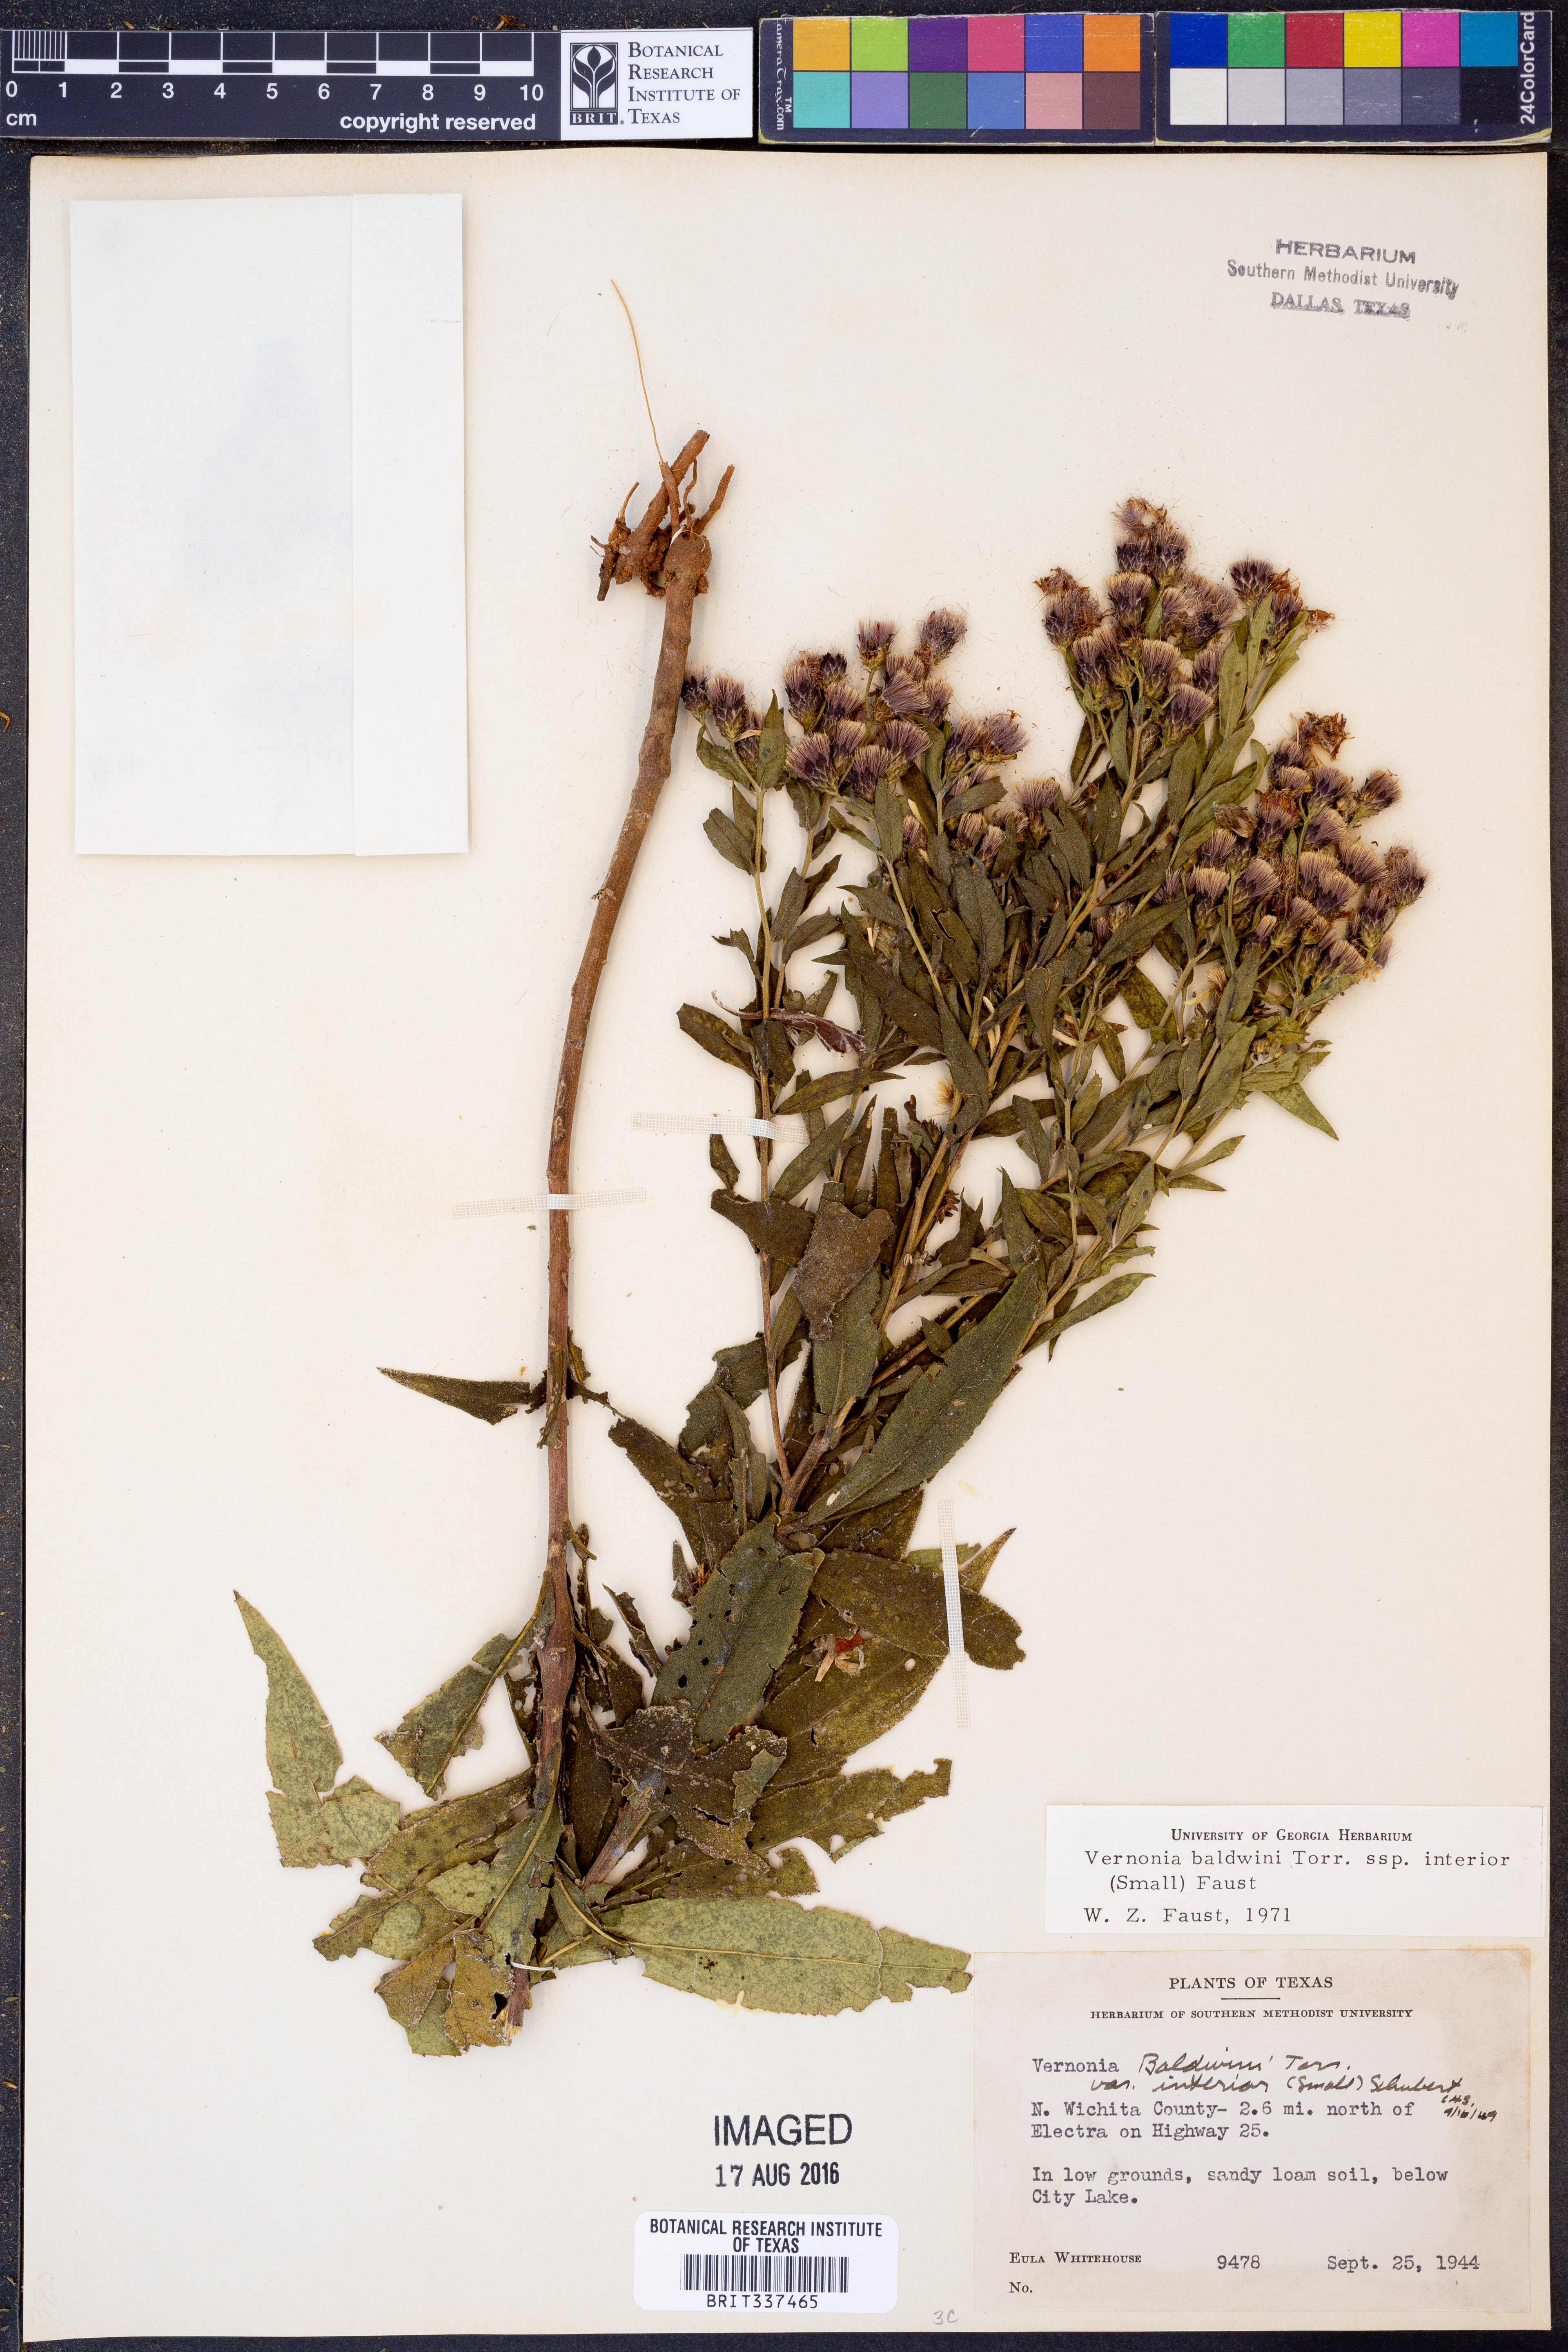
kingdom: Plantae
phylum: Tracheophyta
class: Magnoliopsida
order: Asterales
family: Asteraceae
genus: Vernonia
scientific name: Vernonia baldwinii
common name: Western ironweed
